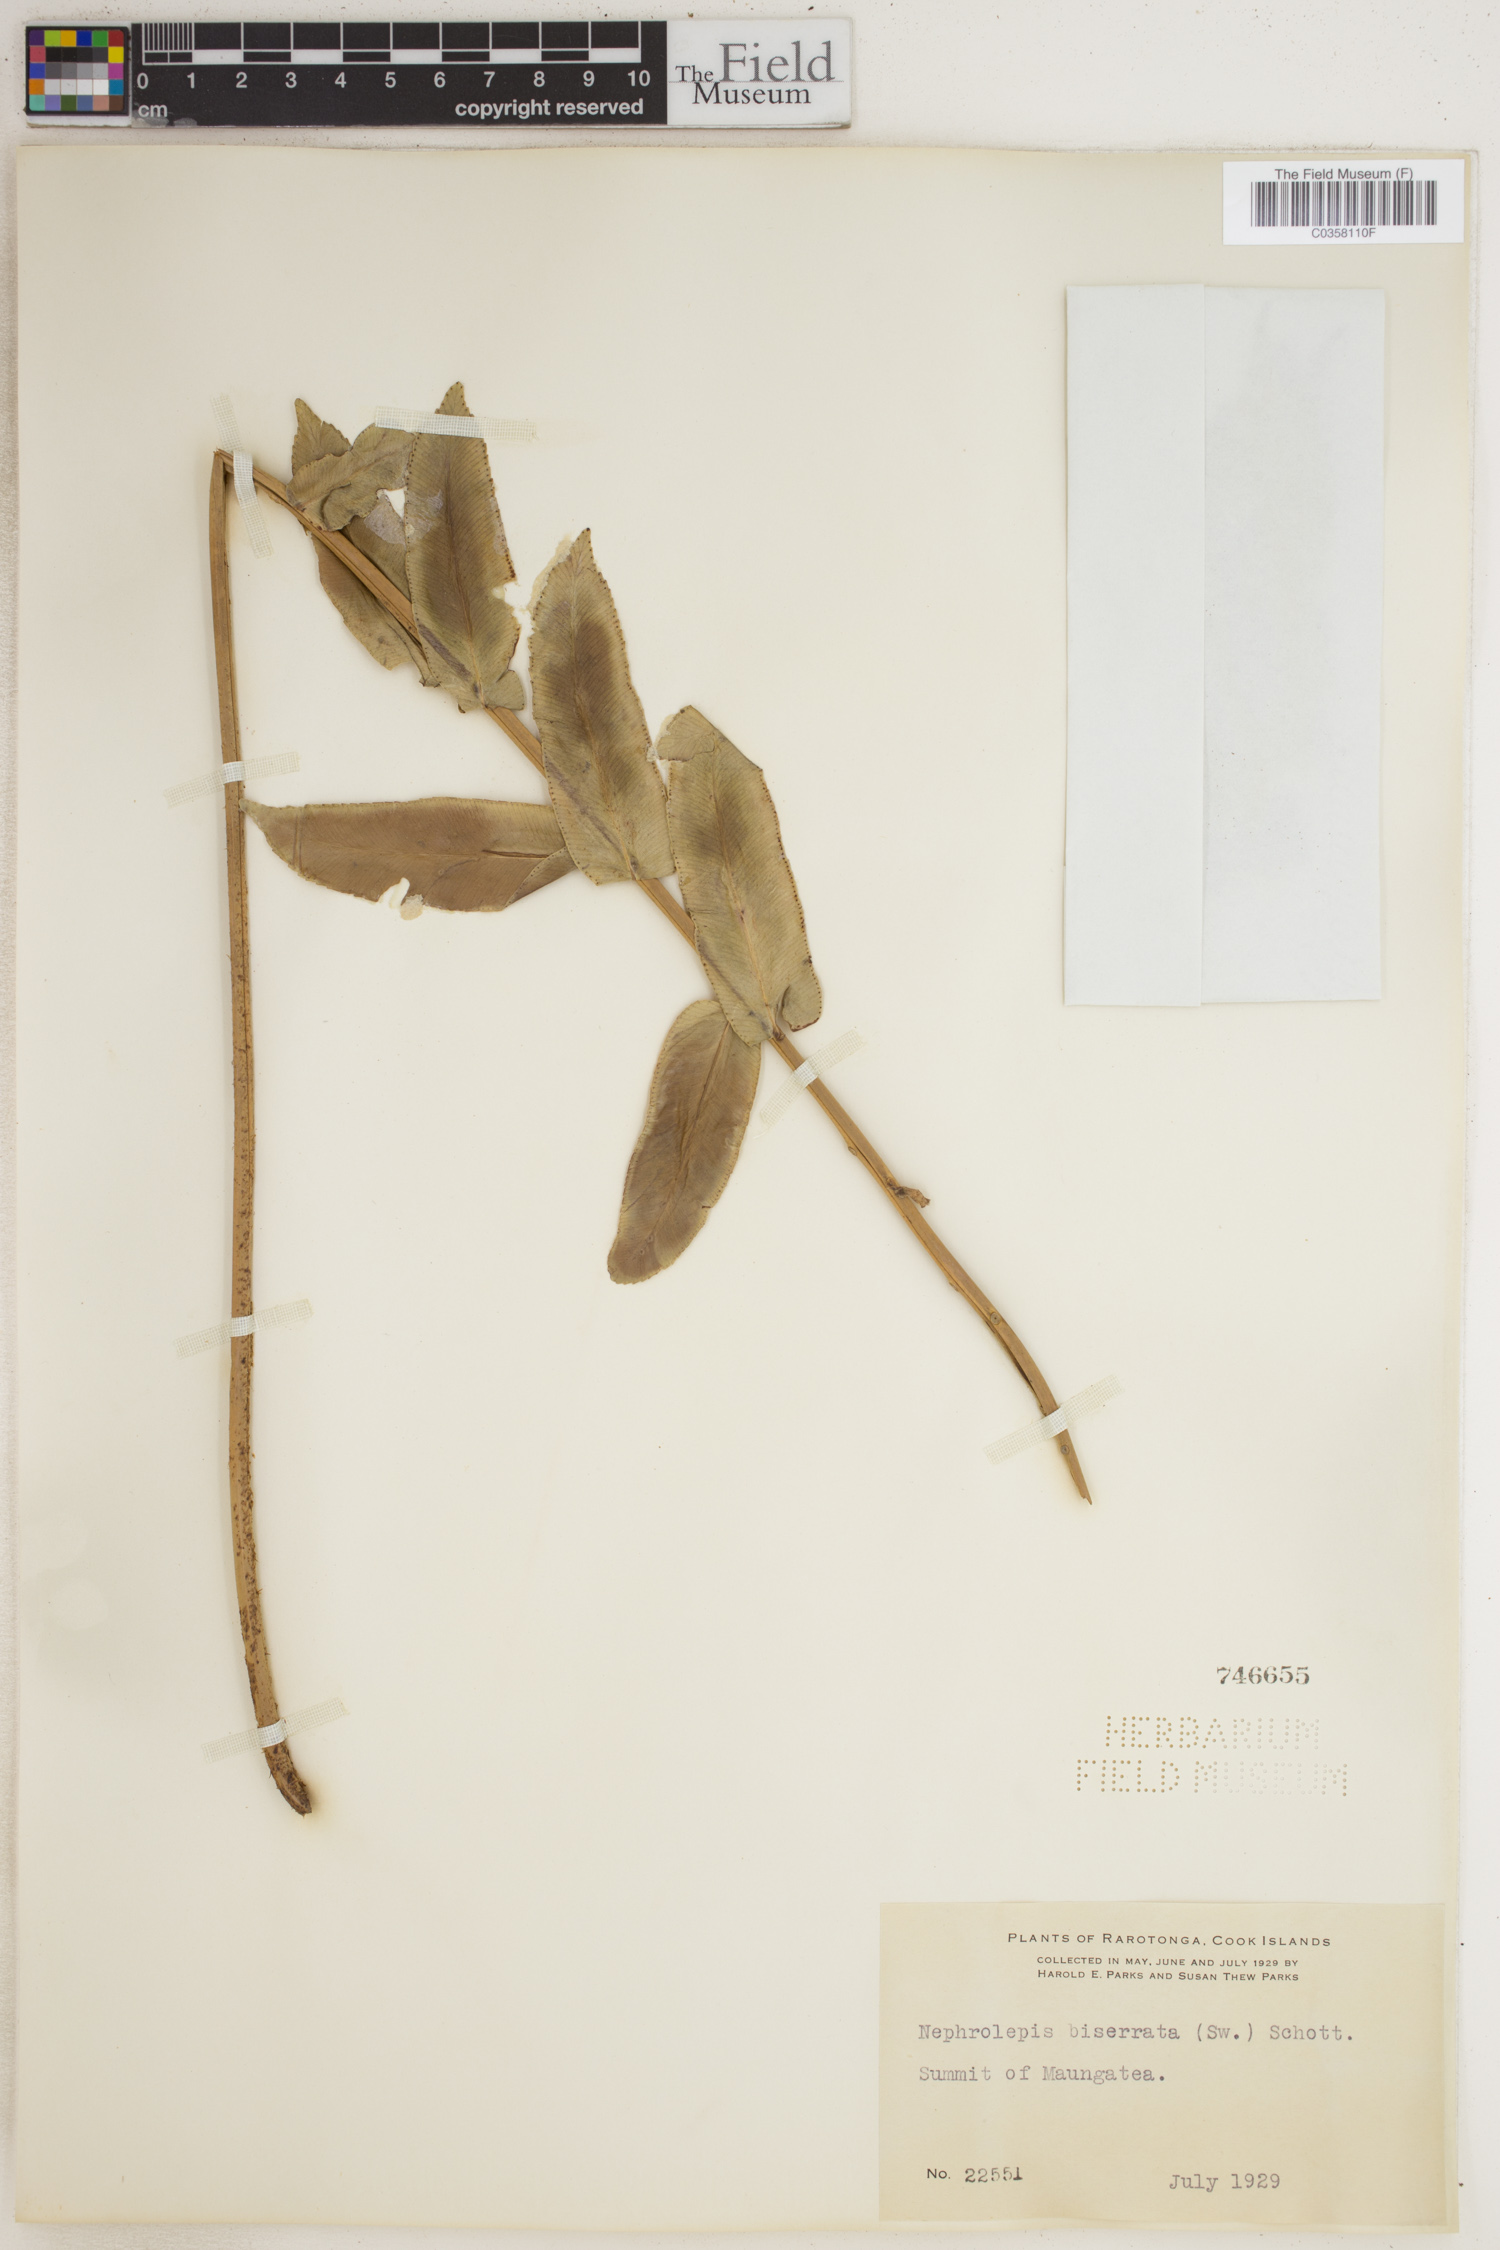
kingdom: Plantae
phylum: Tracheophyta
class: Polypodiopsida
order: Polypodiales
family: Nephrolepidaceae
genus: Nephrolepis
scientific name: Nephrolepis biserrata
